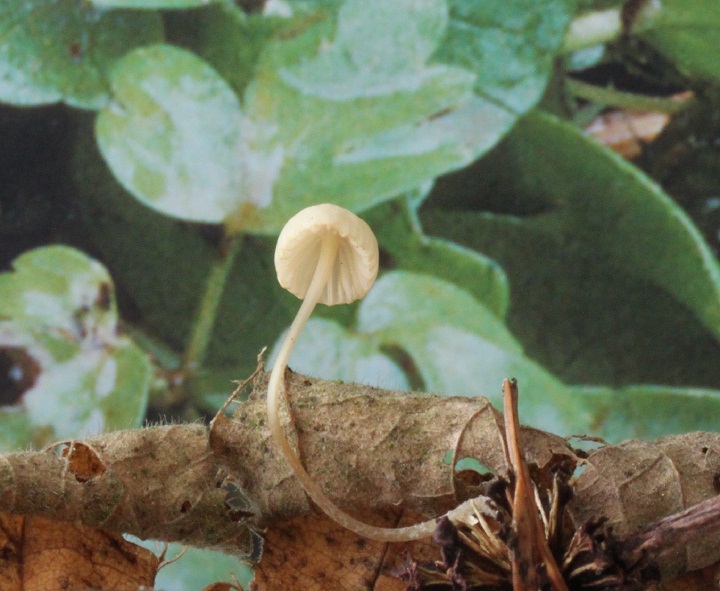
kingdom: Fungi
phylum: Basidiomycota
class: Agaricomycetes
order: Agaricales
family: Mycenaceae
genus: Mycena
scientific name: Mycena citrinomarginata
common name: gulægget huesvamp
